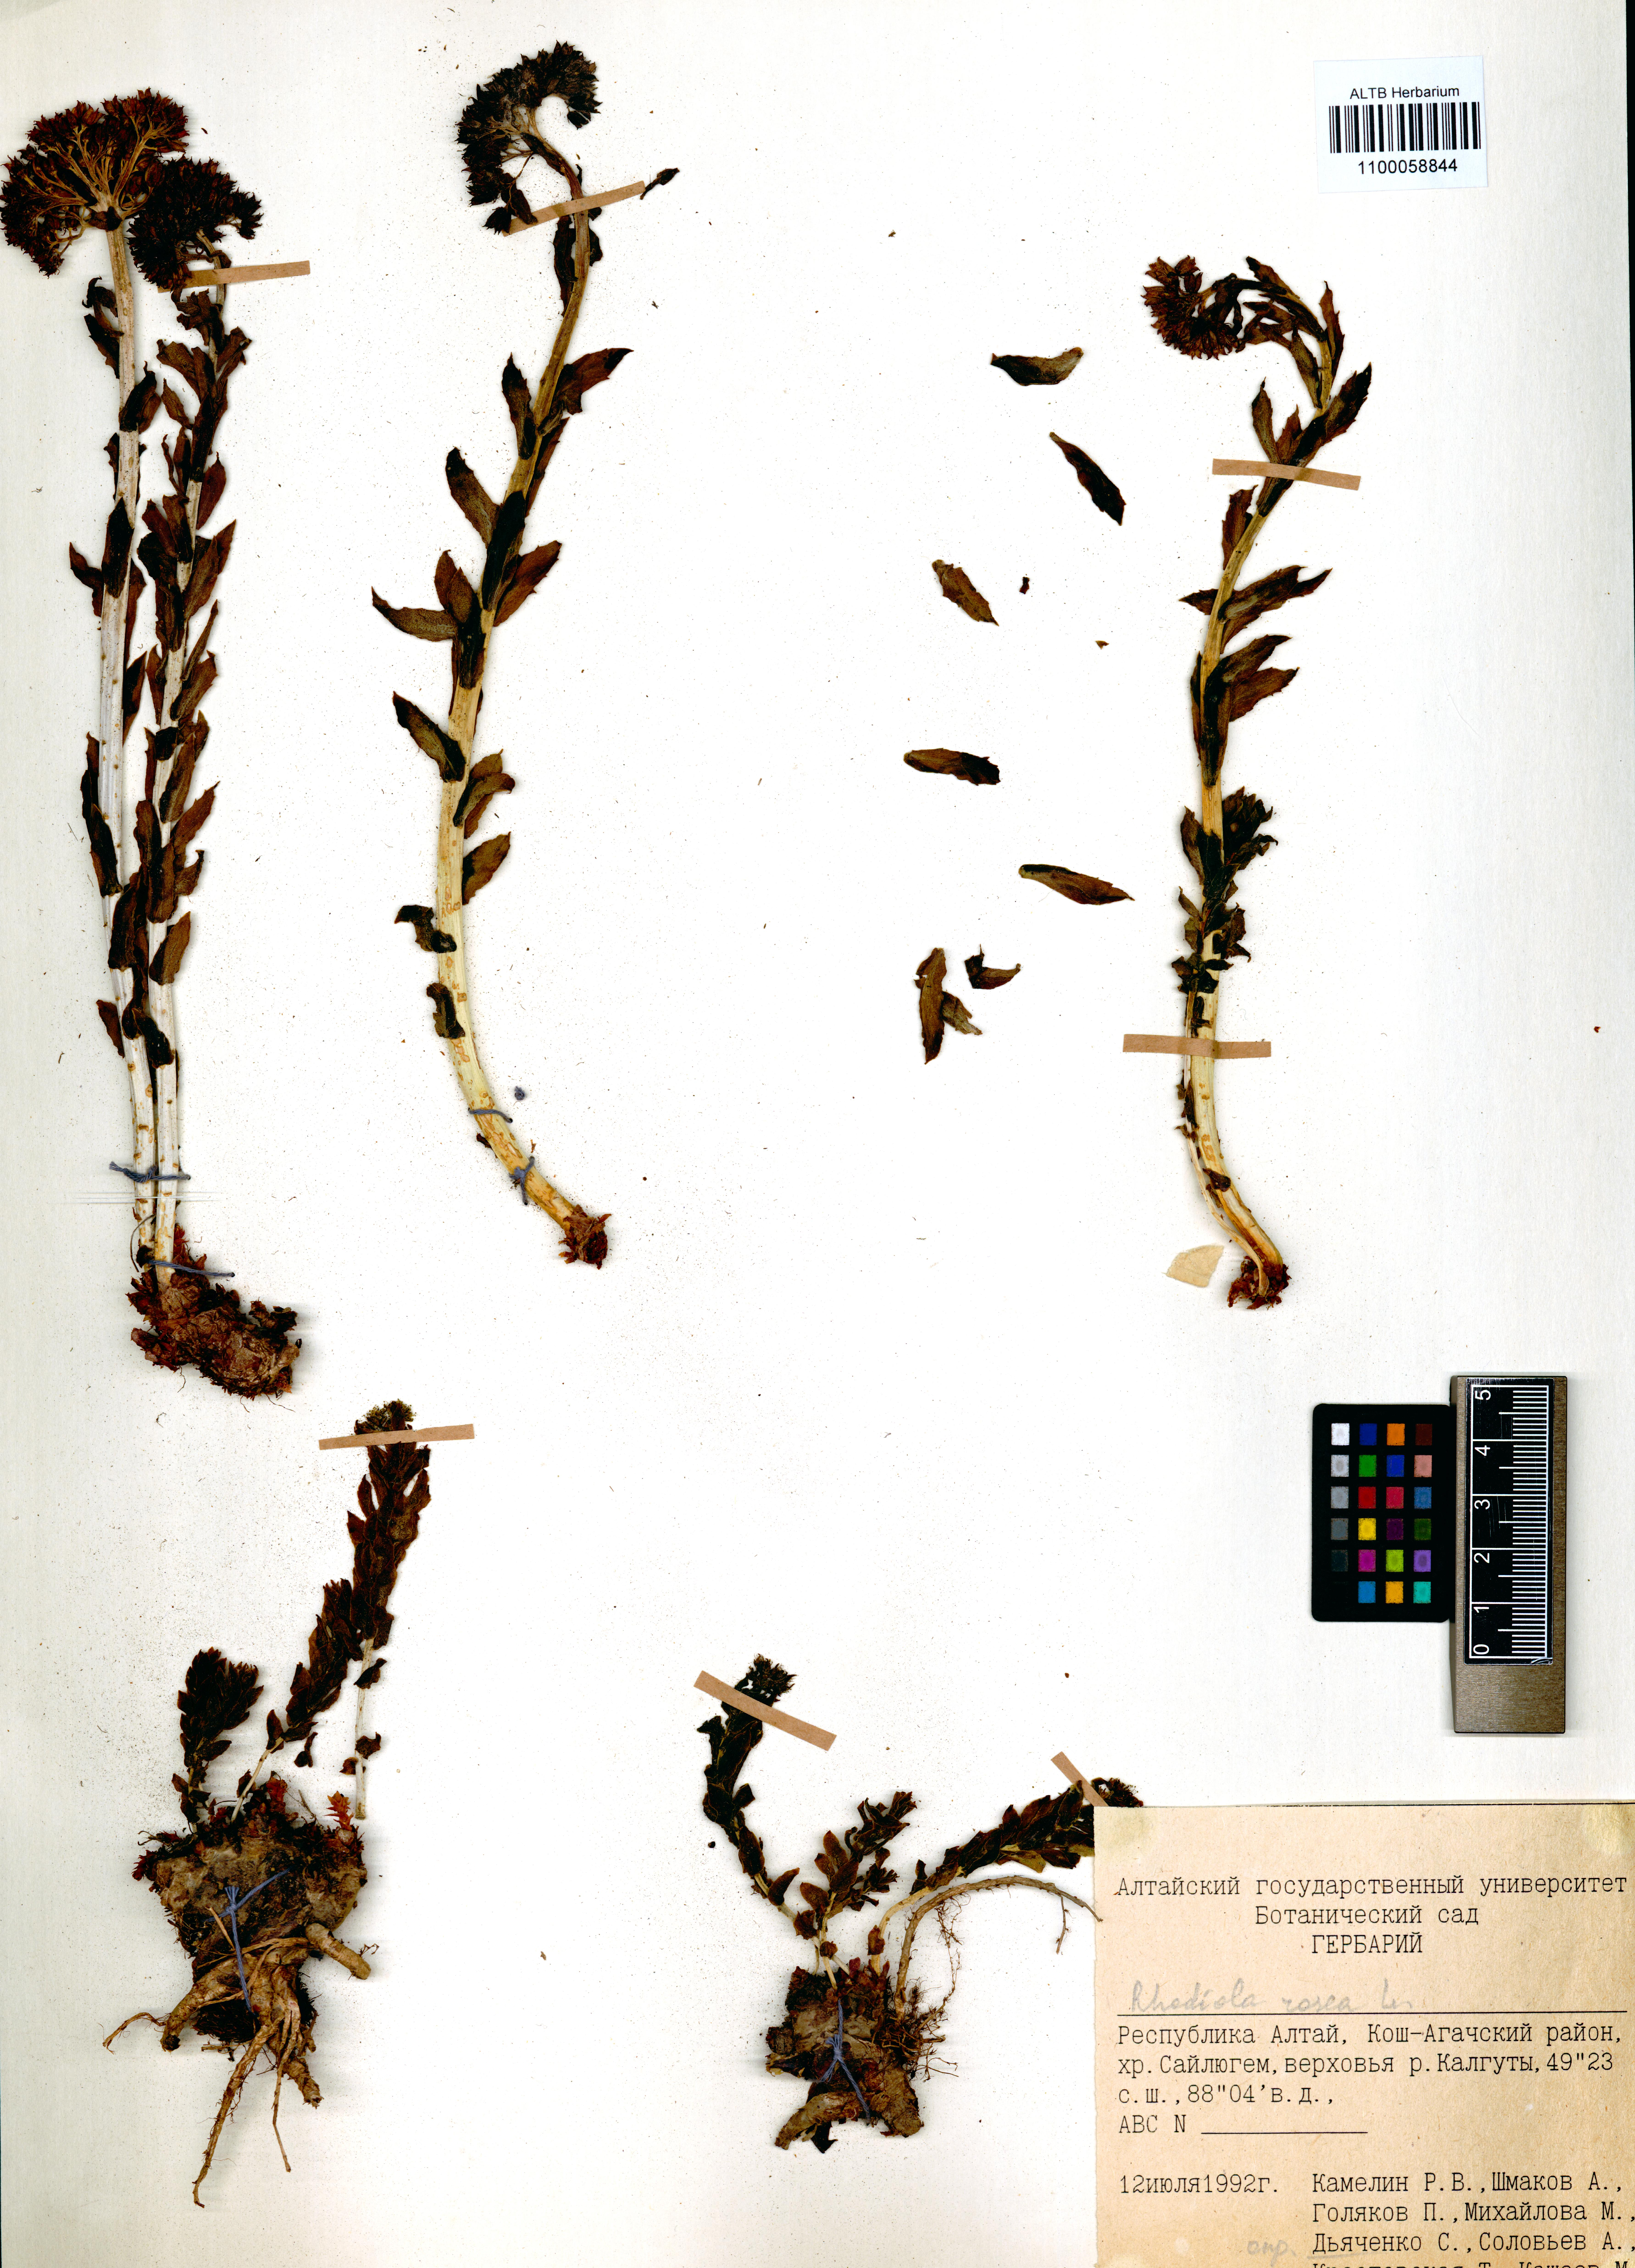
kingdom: Plantae
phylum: Tracheophyta
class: Magnoliopsida
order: Saxifragales
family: Crassulaceae
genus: Rhodiola
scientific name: Rhodiola rosea
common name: Roseroot
